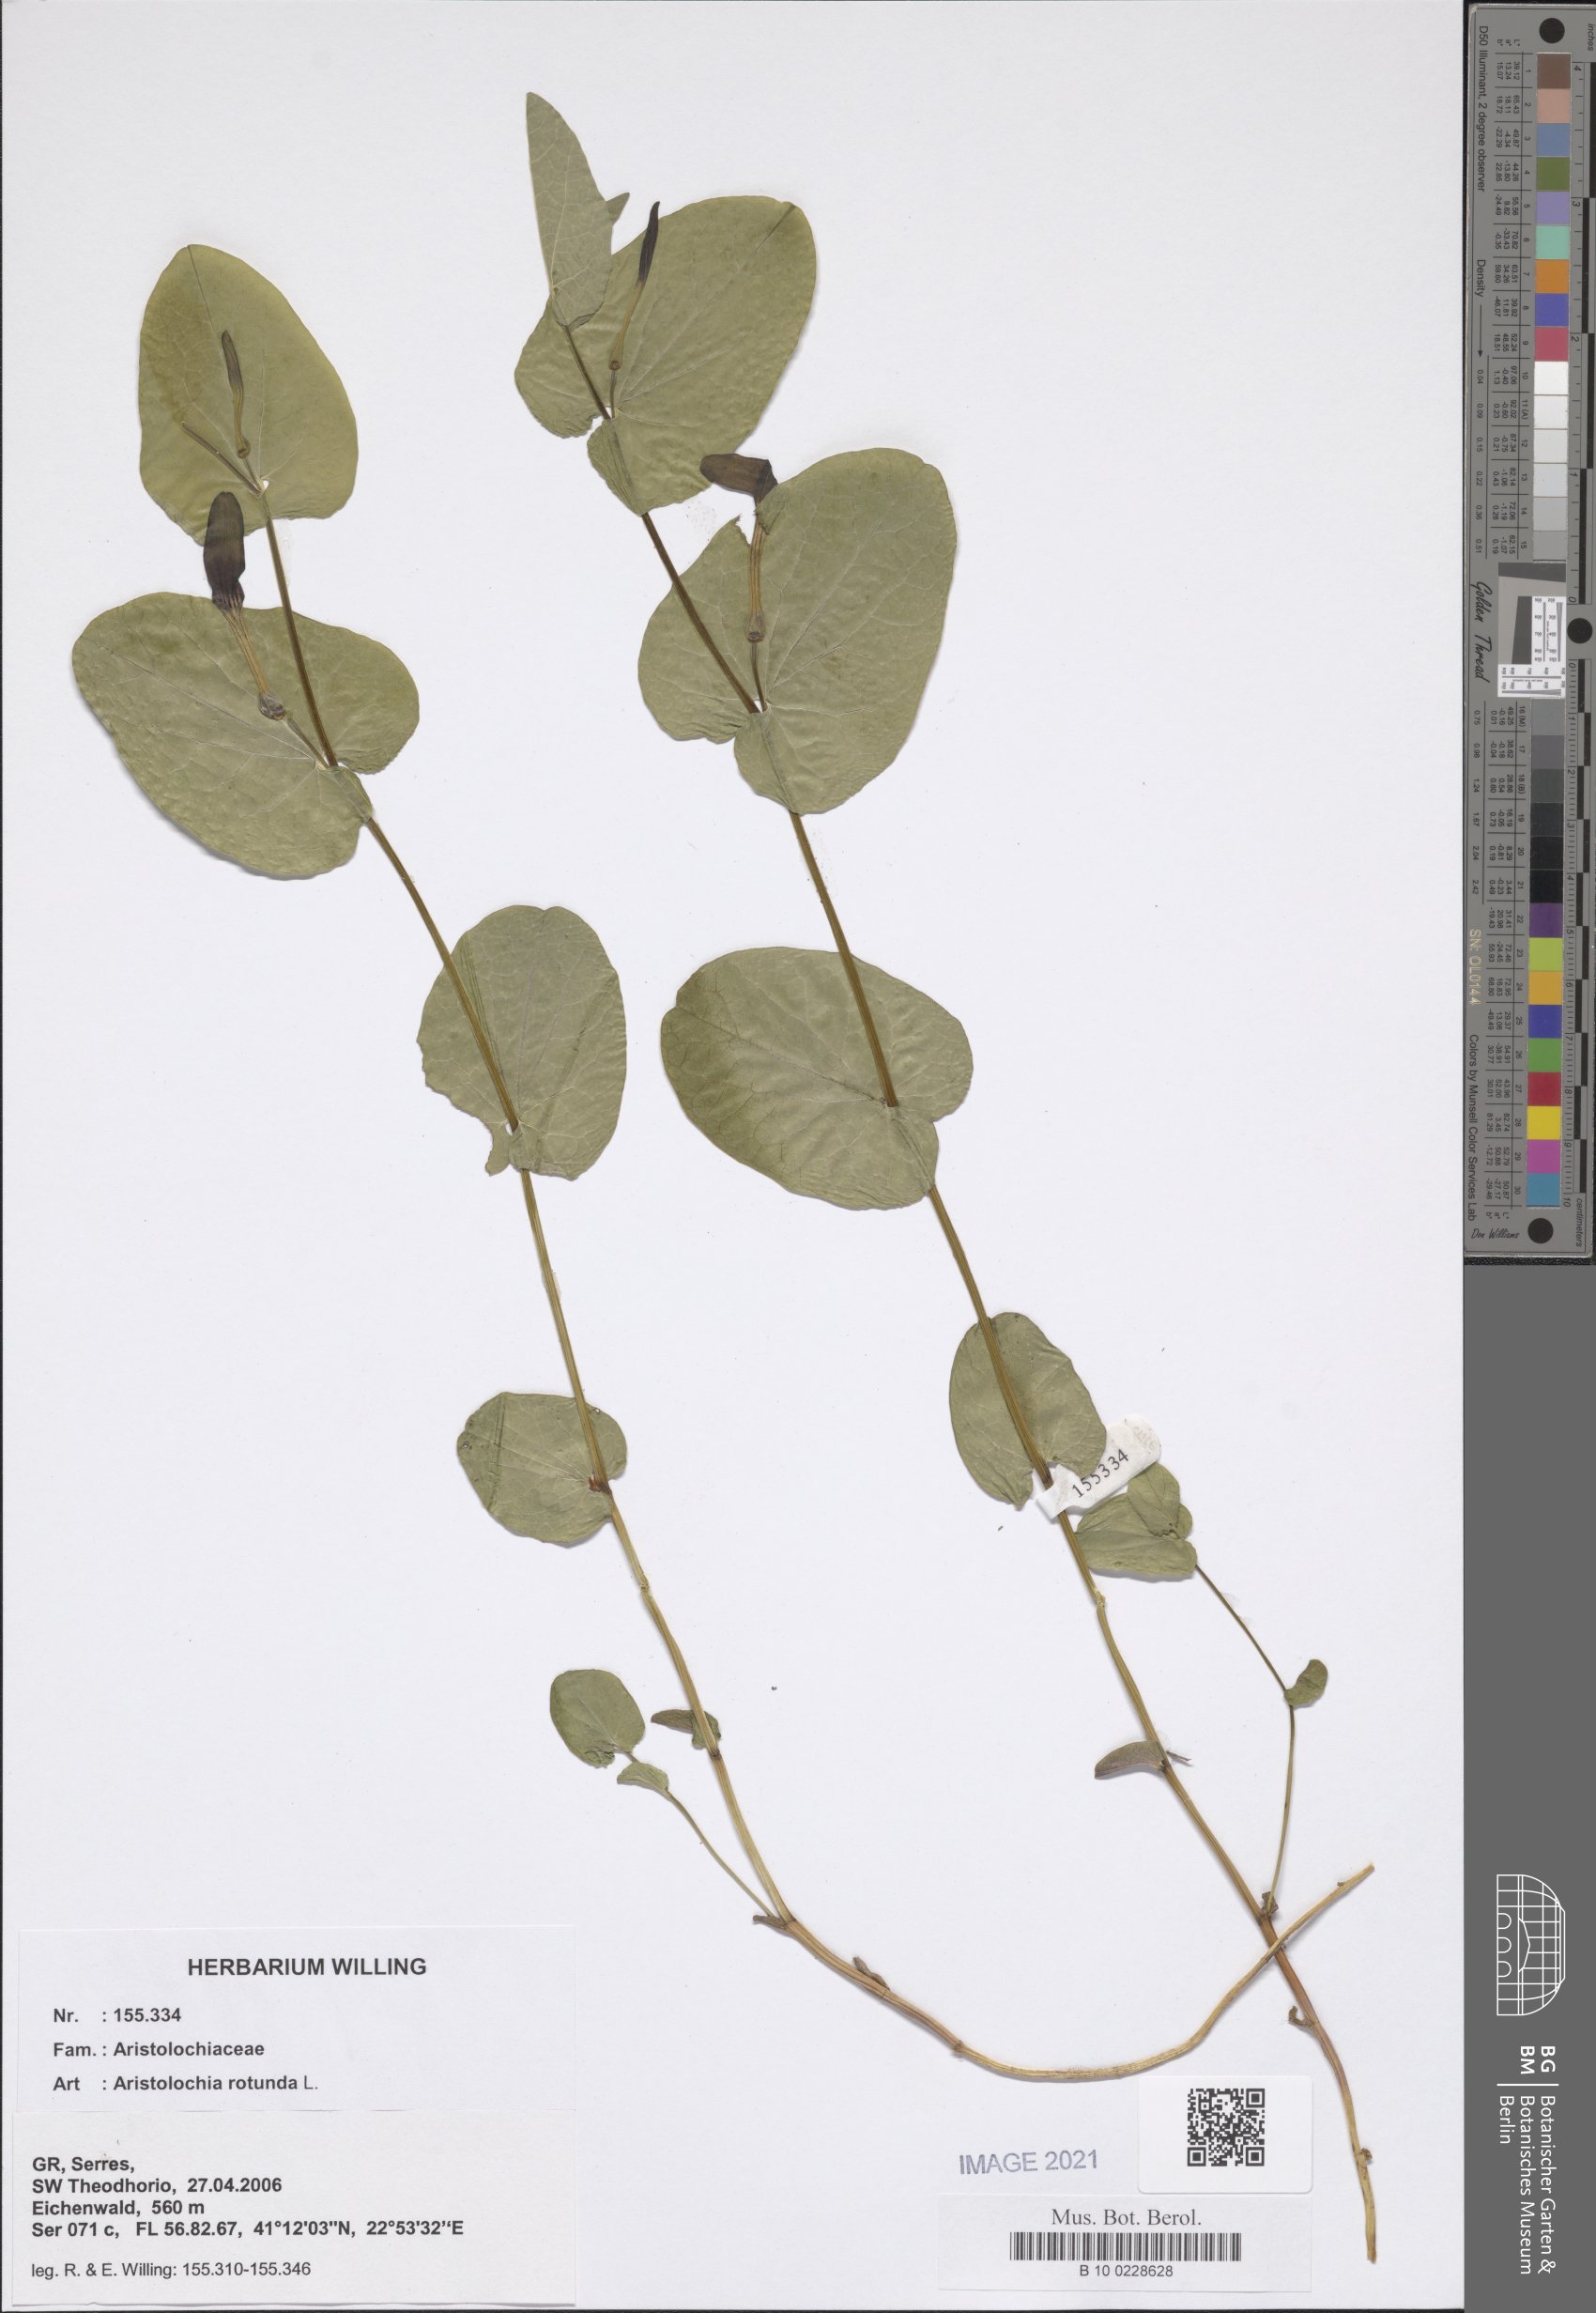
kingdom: Plantae
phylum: Tracheophyta
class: Magnoliopsida
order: Piperales
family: Aristolochiaceae
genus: Aristolochia
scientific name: Aristolochia rotunda
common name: Smearwort
